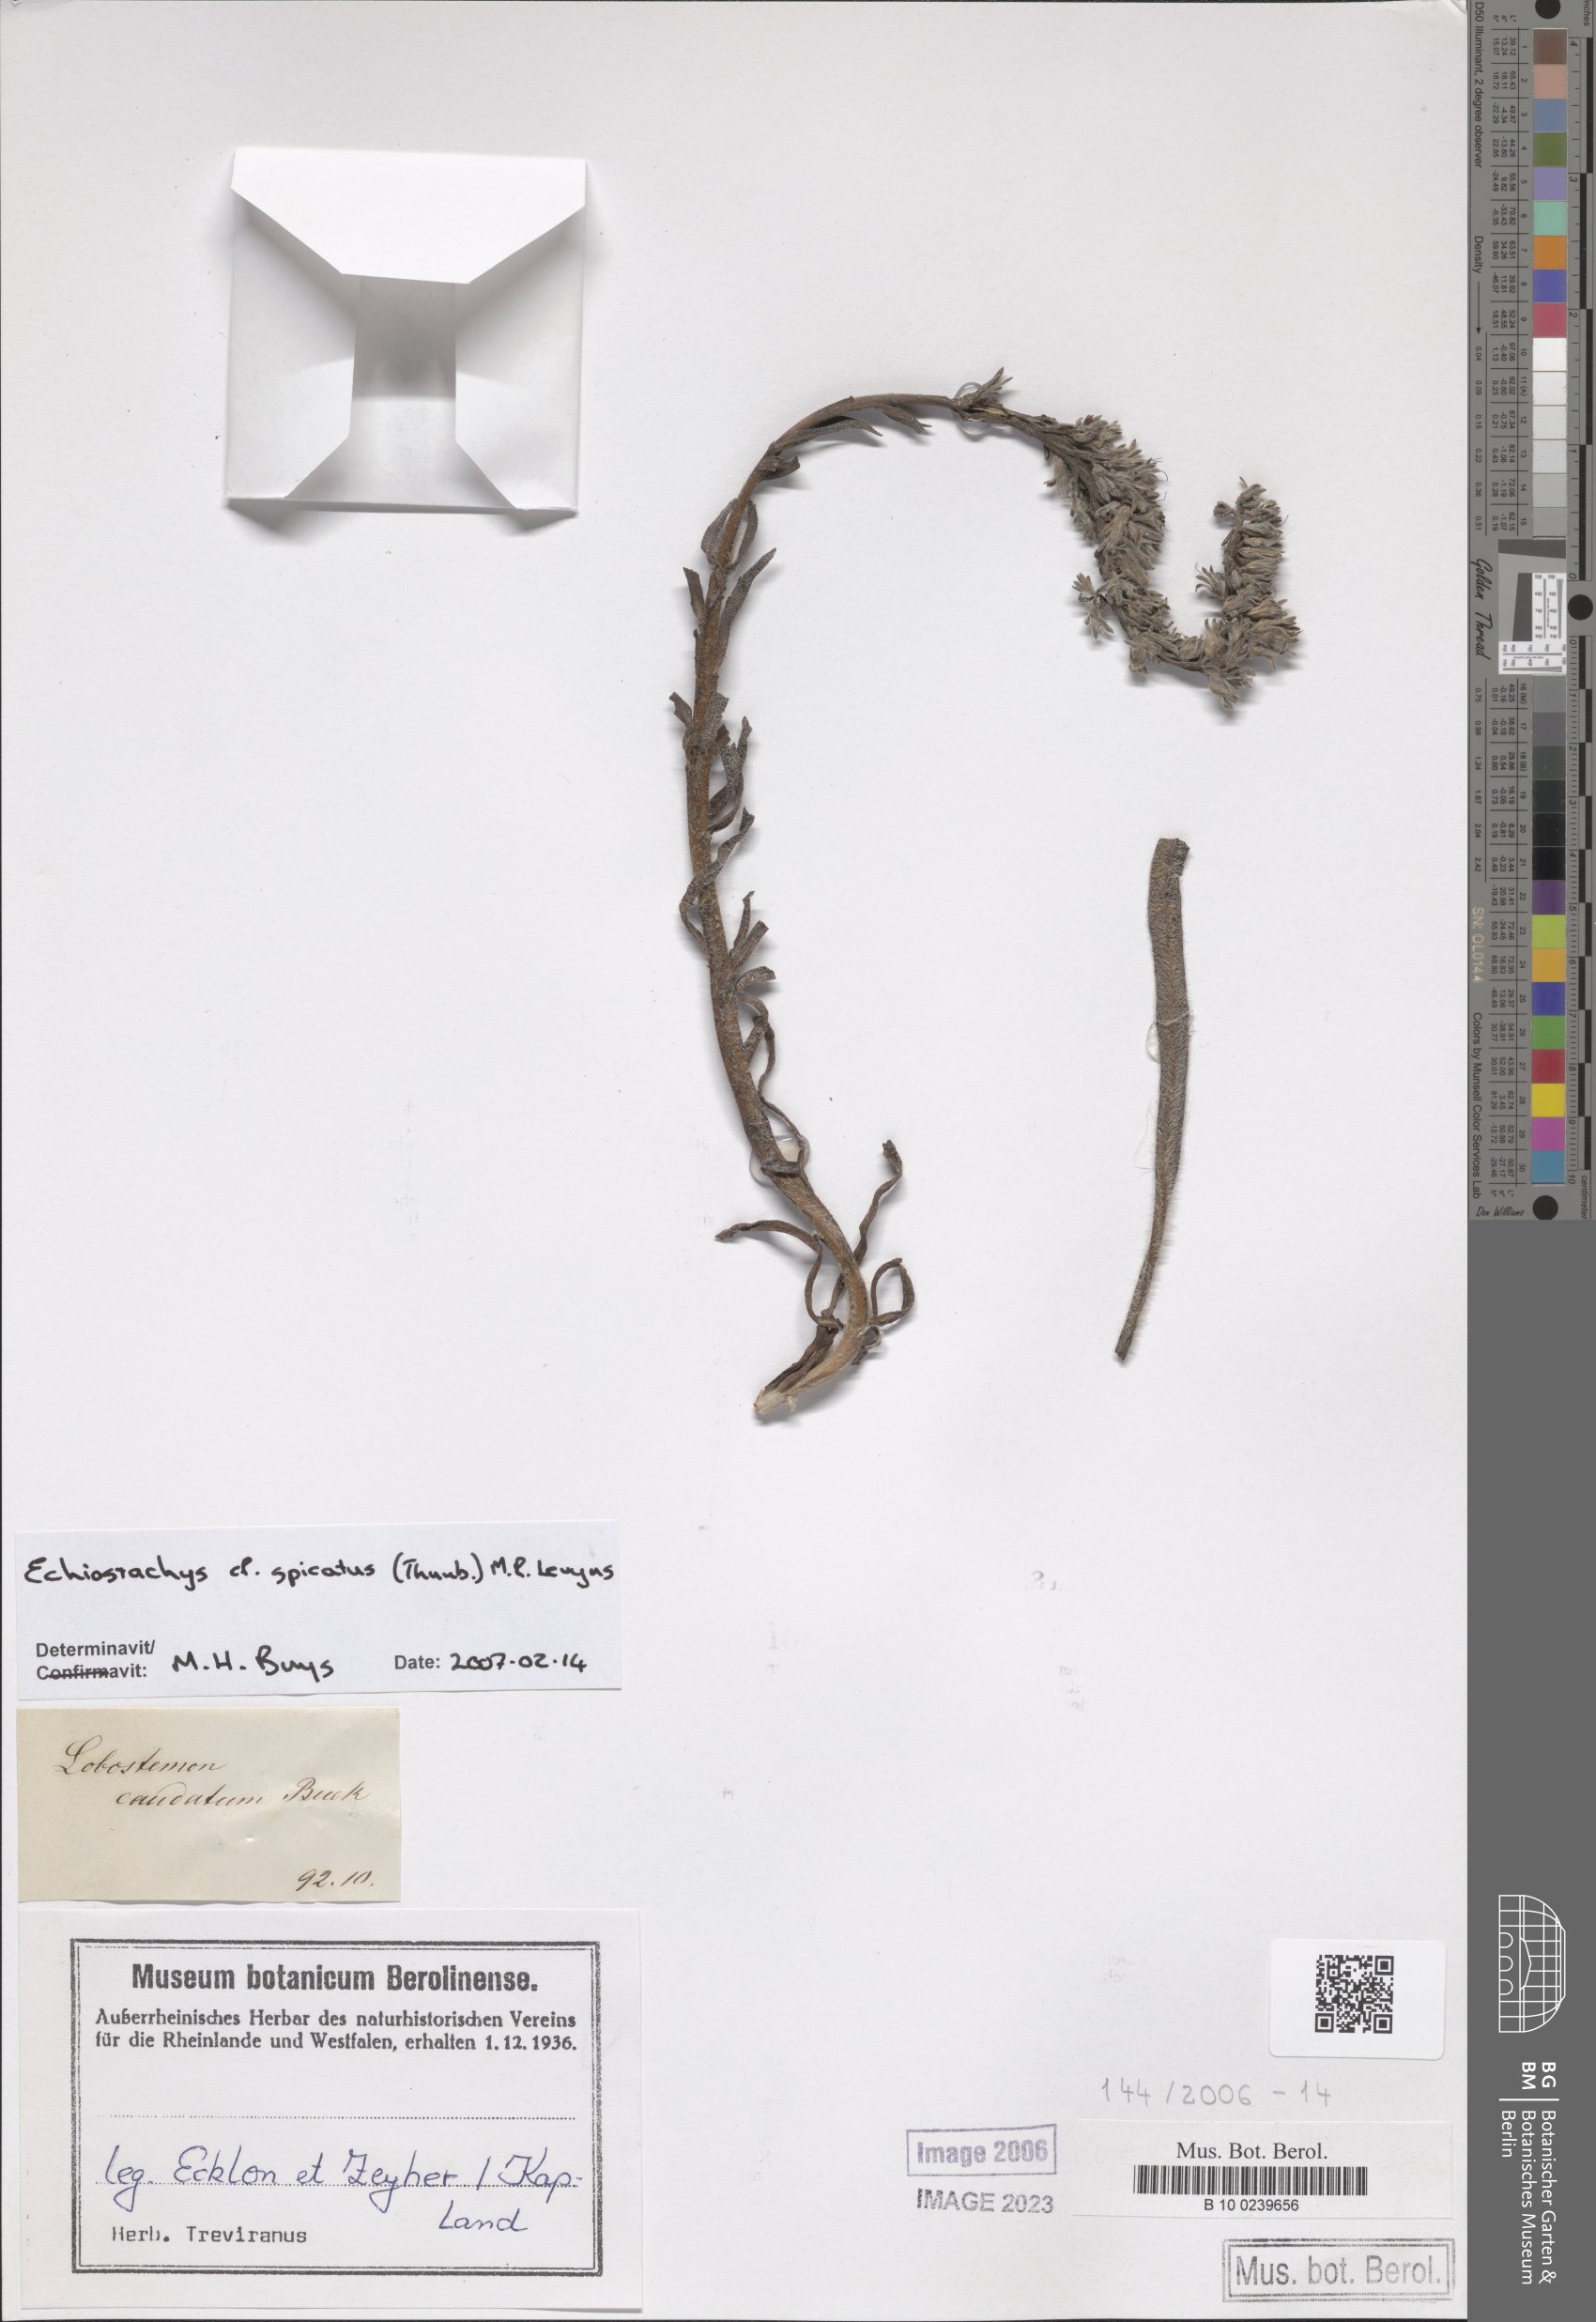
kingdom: Plantae
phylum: Tracheophyta
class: Magnoliopsida
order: Boraginales
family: Boraginaceae
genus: Lobostemon
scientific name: Lobostemon spicatus
